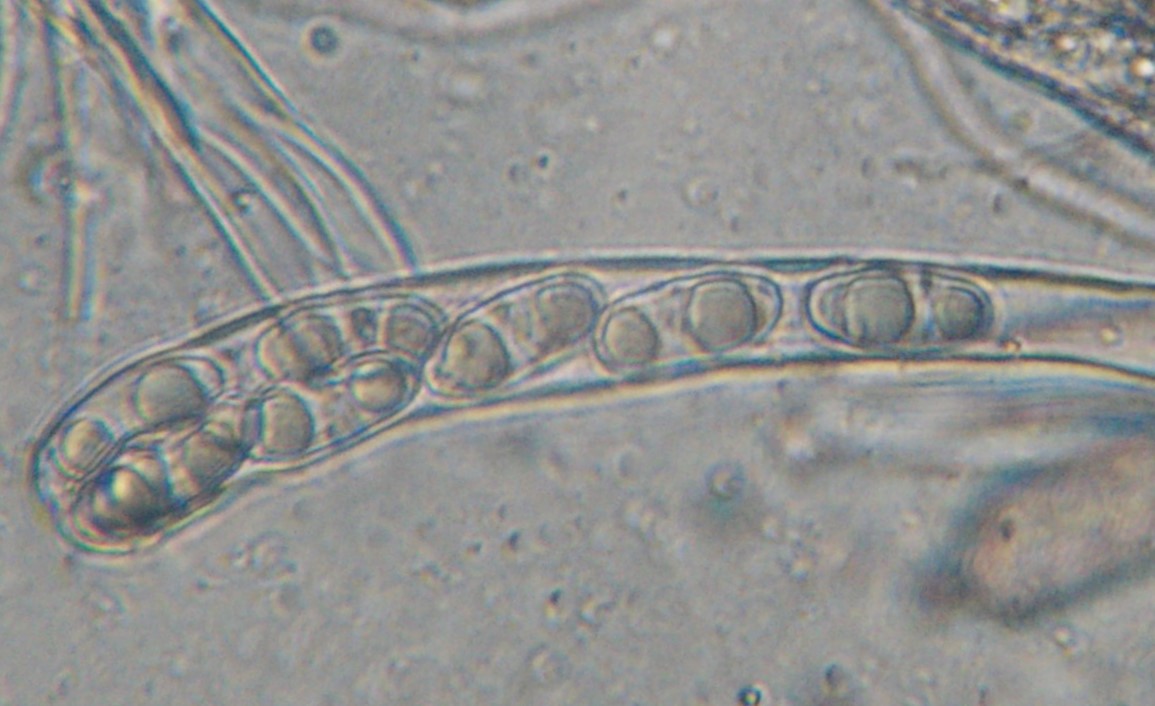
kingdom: Fungi
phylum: Ascomycota
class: Pezizomycetes
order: Pezizales
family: Pyronemataceae
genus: Octospora
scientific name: Octospora musci-muralis
